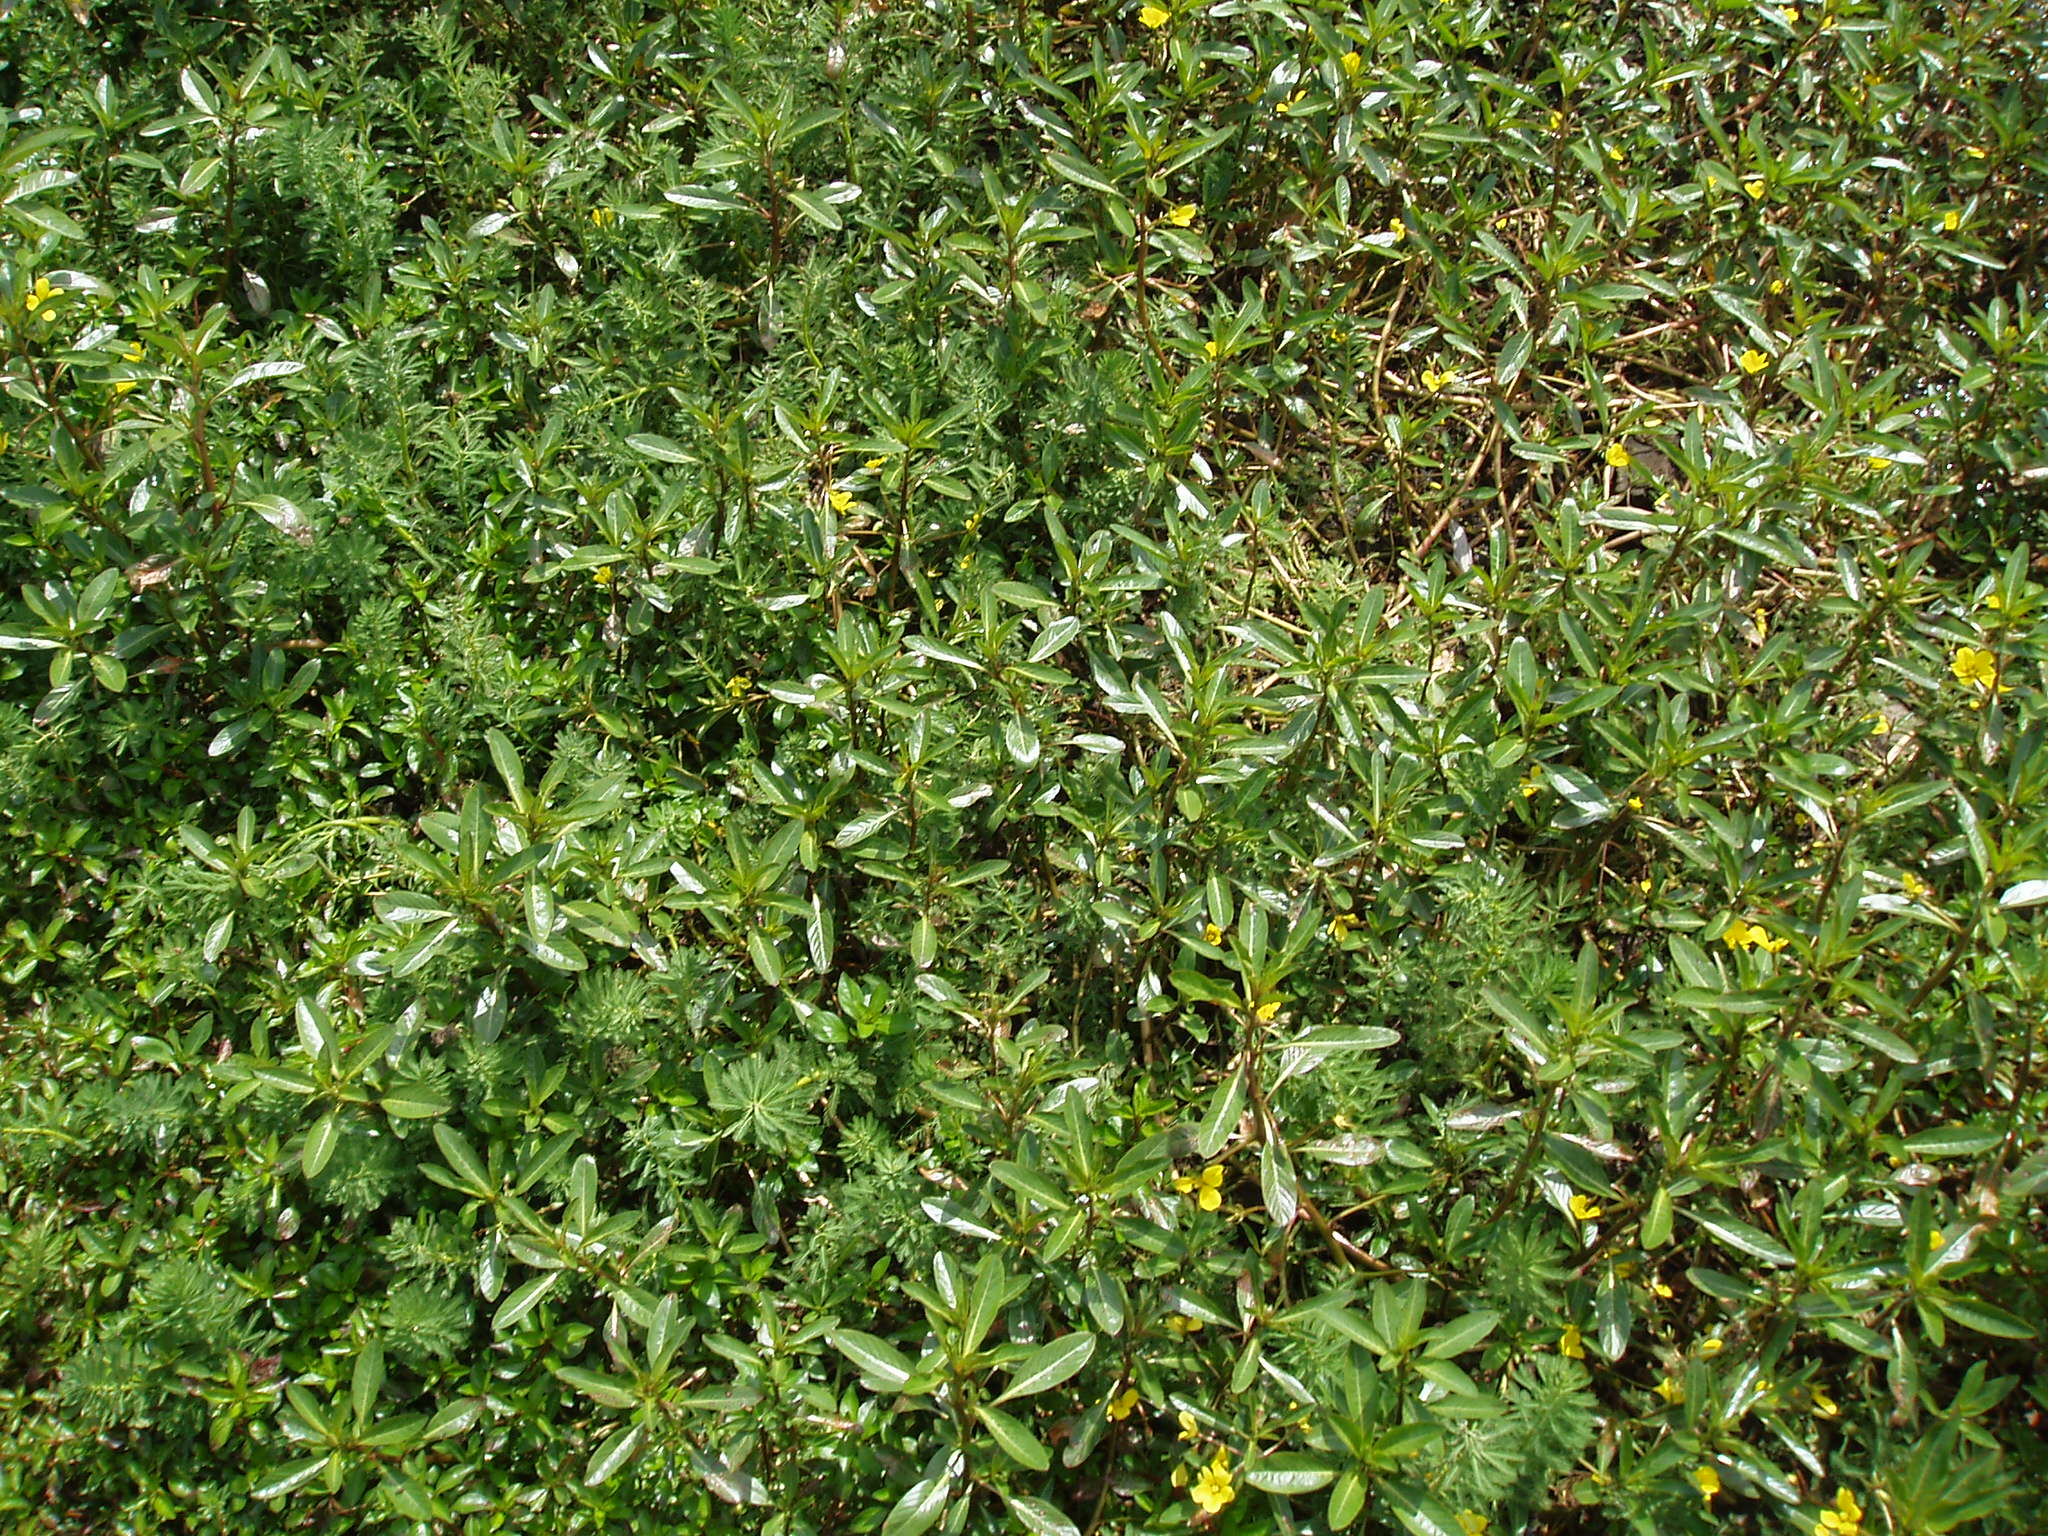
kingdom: Plantae
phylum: Tracheophyta
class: Magnoliopsida
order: Saxifragales
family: Haloragaceae
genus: Myriophyllum
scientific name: Myriophyllum aquaticum
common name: Parrot's feather
